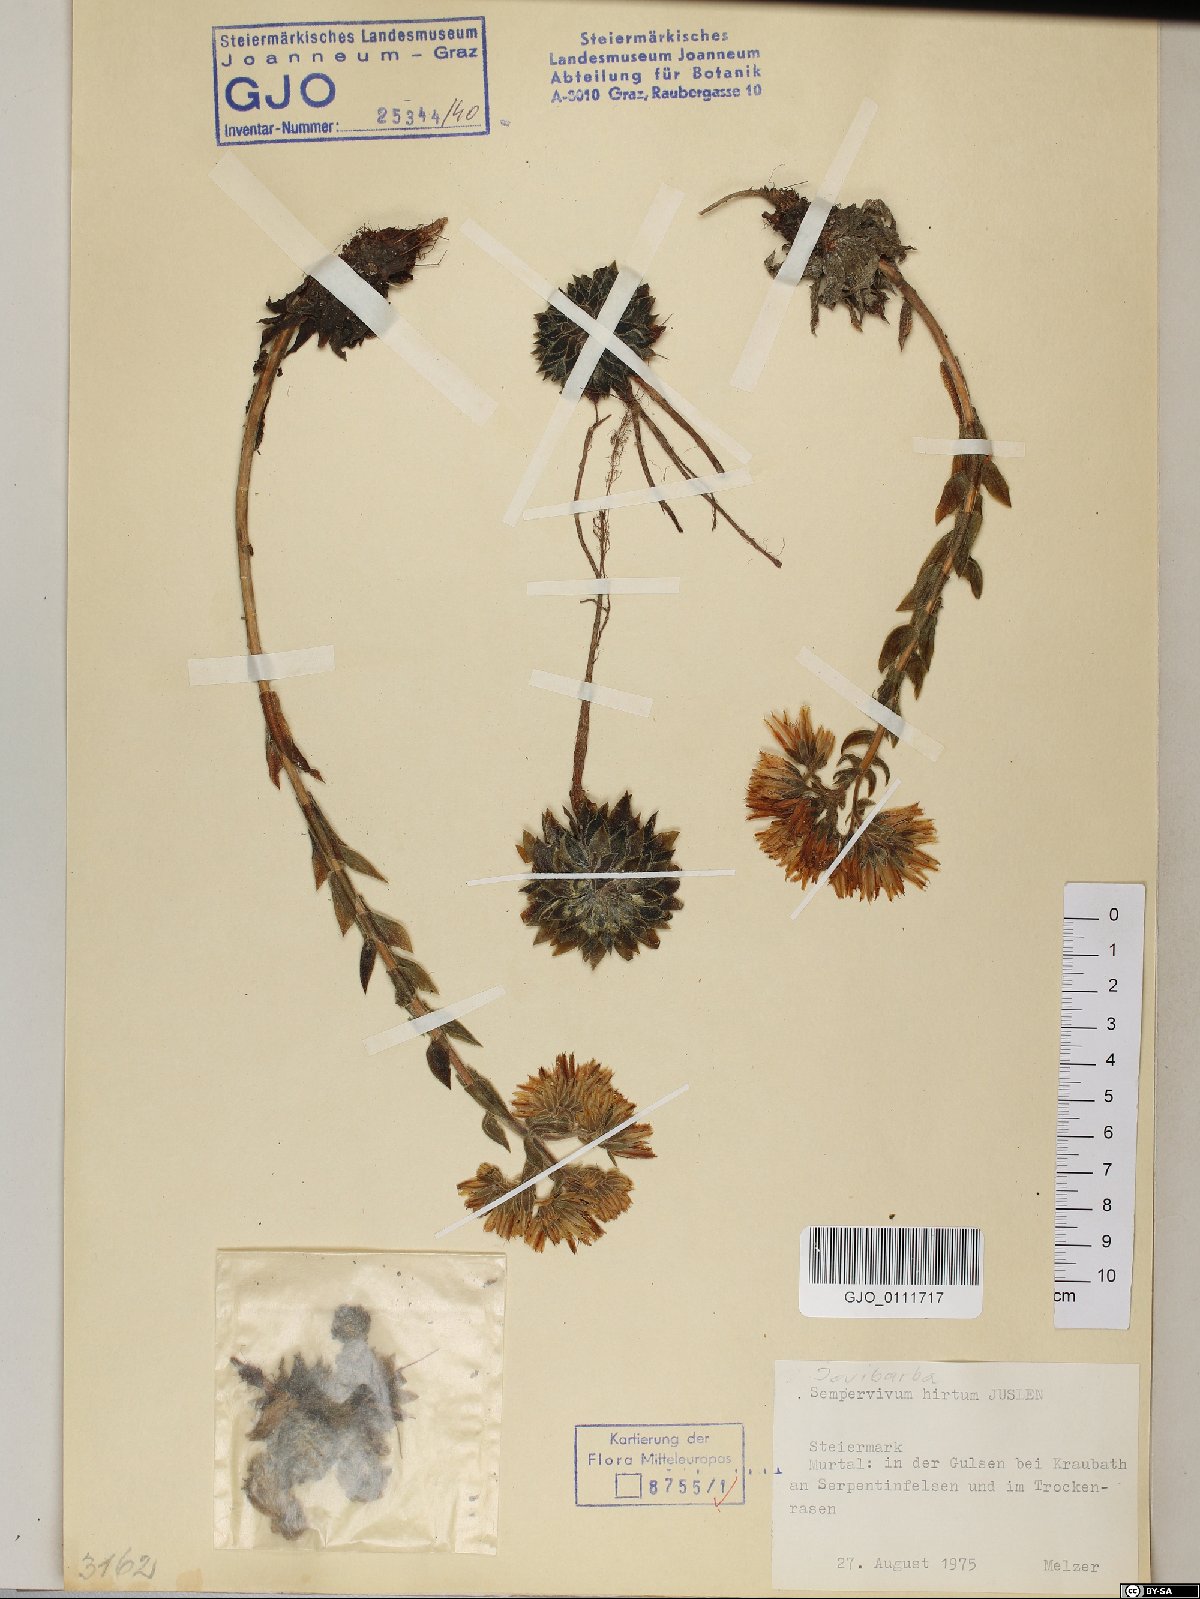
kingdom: Plantae
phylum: Tracheophyta
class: Magnoliopsida
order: Saxifragales
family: Crassulaceae
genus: Sempervivum
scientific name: Sempervivum globiferum
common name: Rolling hen-and-chicks
